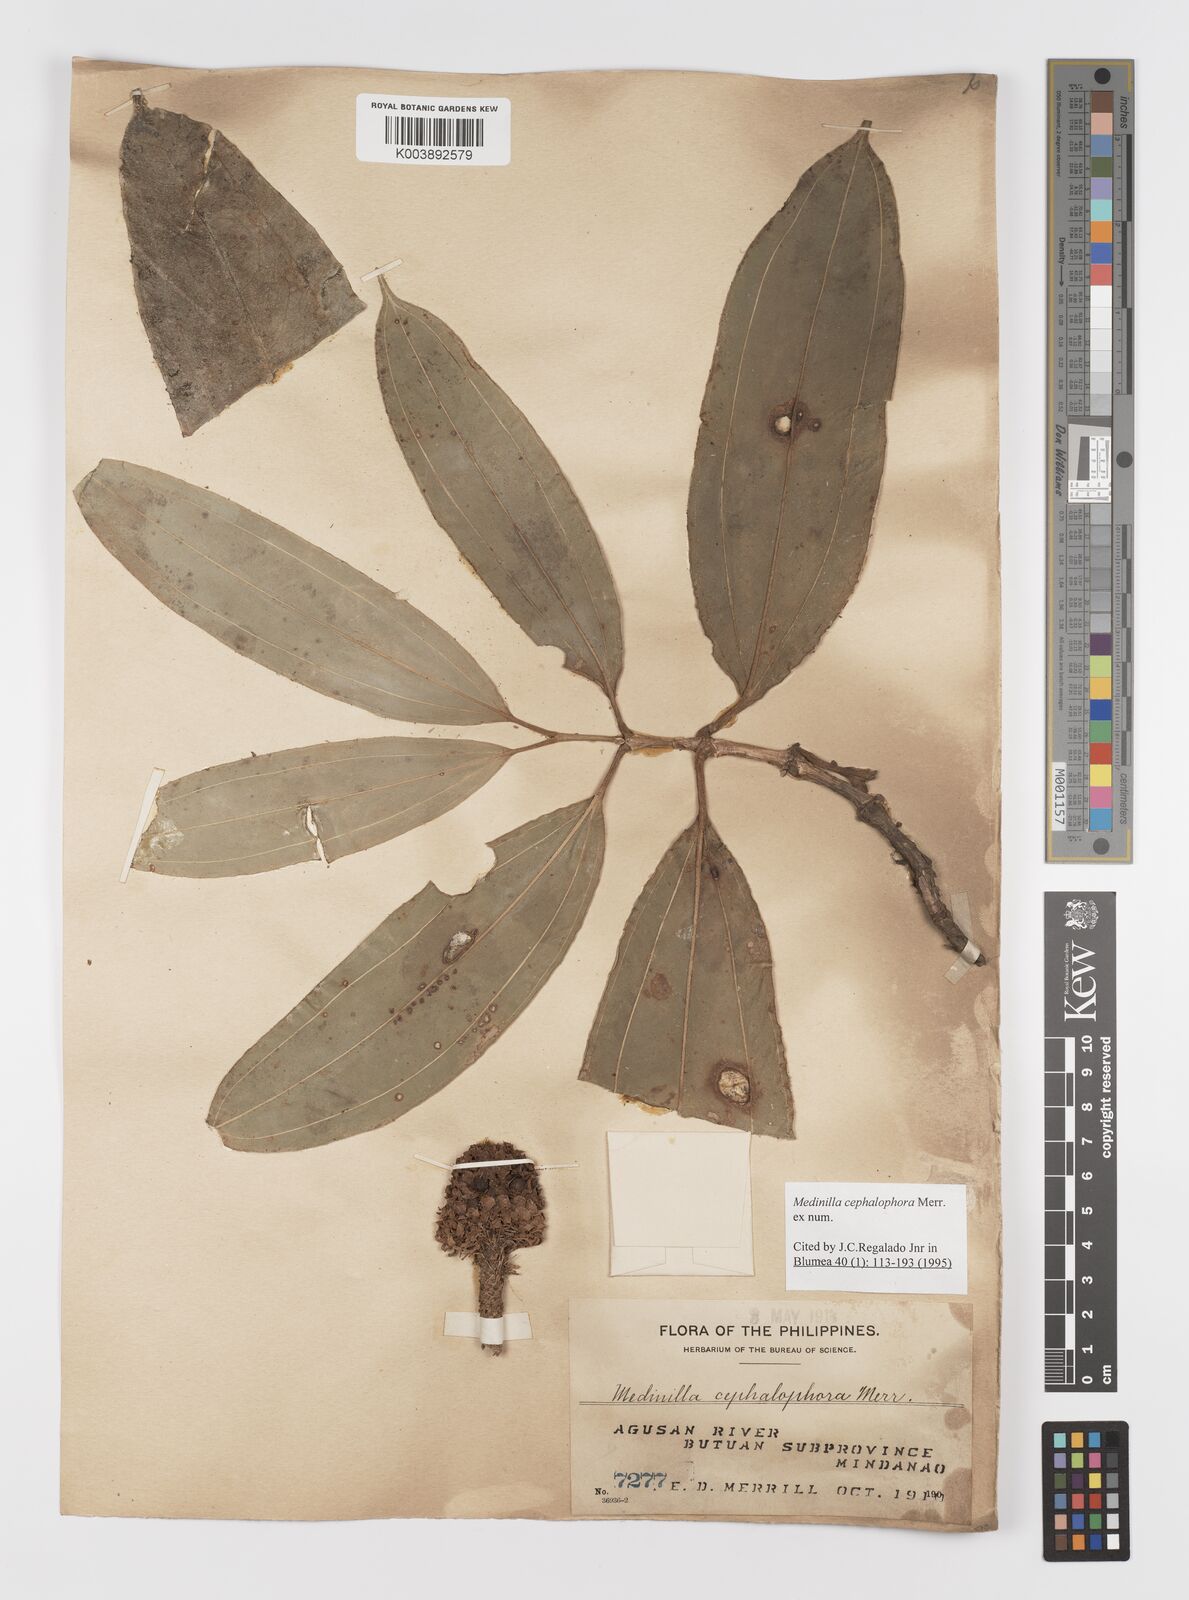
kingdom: Plantae
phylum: Tracheophyta
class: Magnoliopsida
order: Myrtales
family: Melastomataceae
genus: Medinilla
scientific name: Medinilla cephalophora
